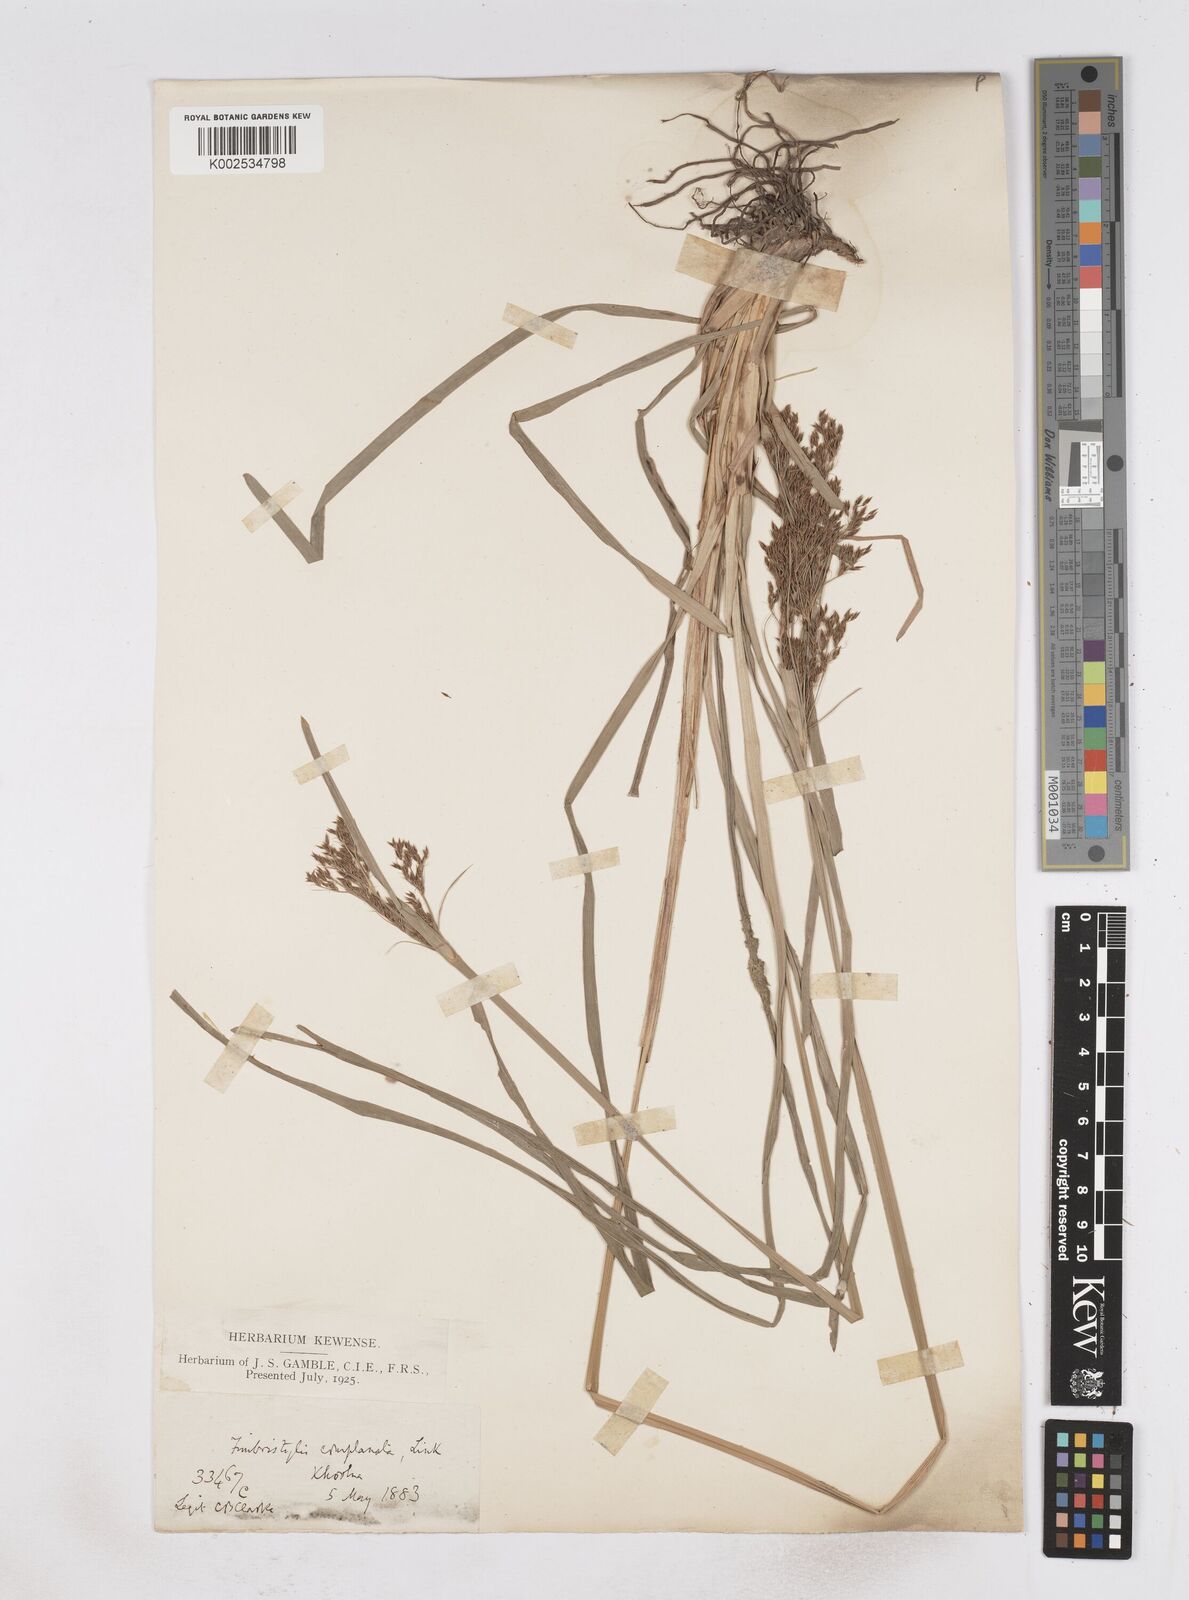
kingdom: Plantae
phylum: Tracheophyta
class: Liliopsida
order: Poales
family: Cyperaceae
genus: Fimbristylis
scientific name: Fimbristylis complanata
